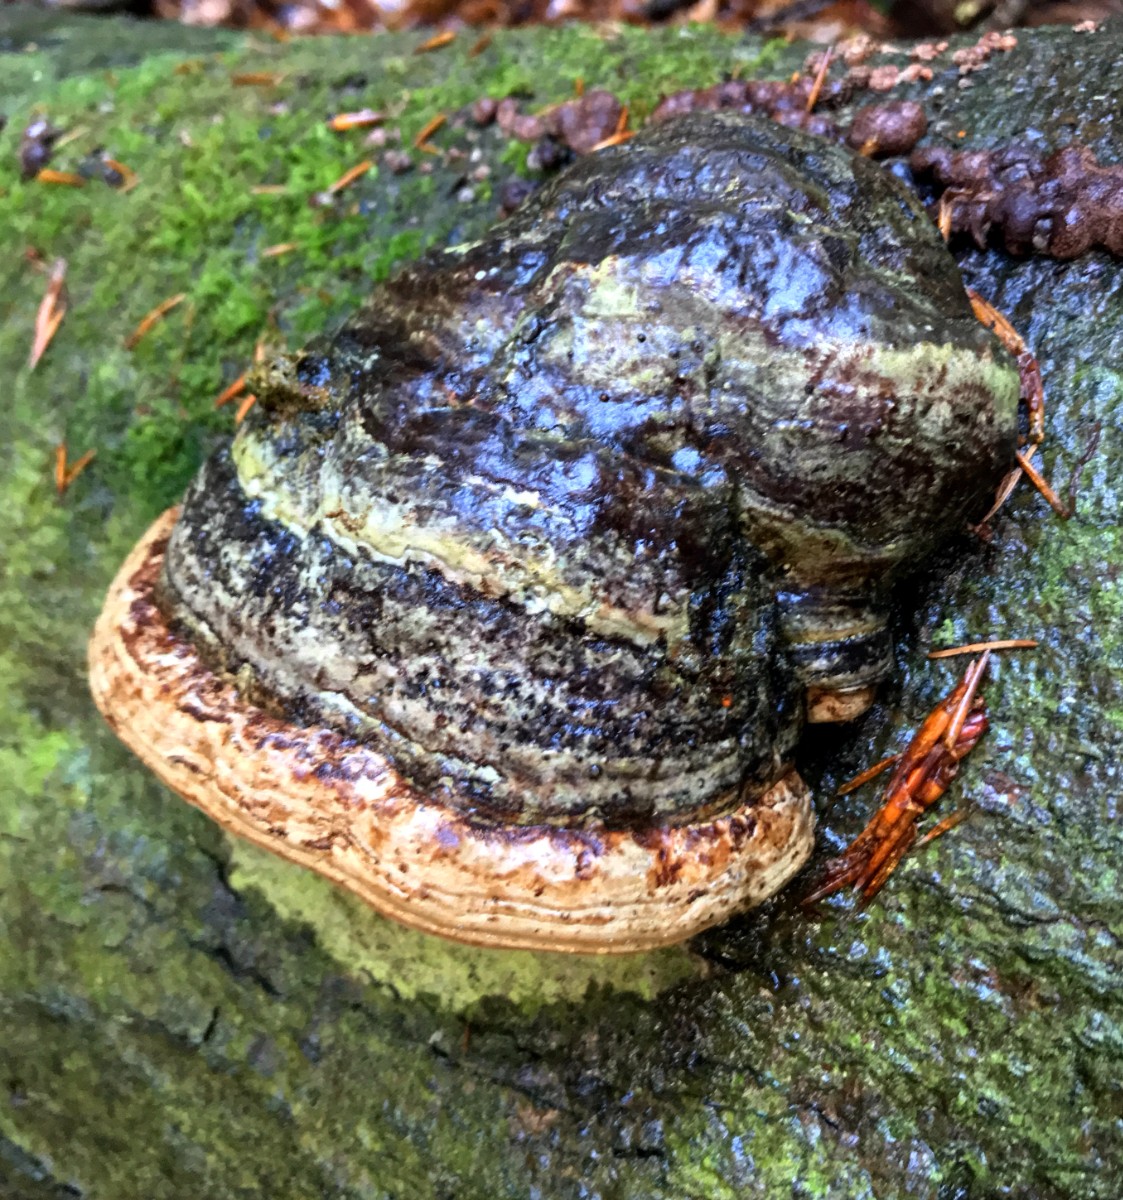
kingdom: Fungi
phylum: Basidiomycota
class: Agaricomycetes
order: Polyporales
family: Polyporaceae
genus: Fomes
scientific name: Fomes fomentarius
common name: tøndersvamp
